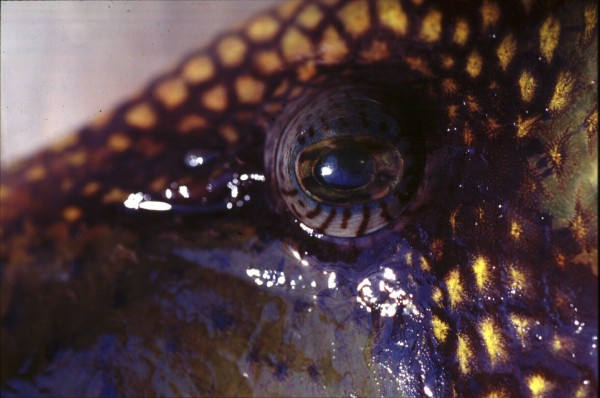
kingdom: Animalia
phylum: Chordata
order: Tetraodontiformes
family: Balistidae
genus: Balistoides
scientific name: Balistoides viridescens
